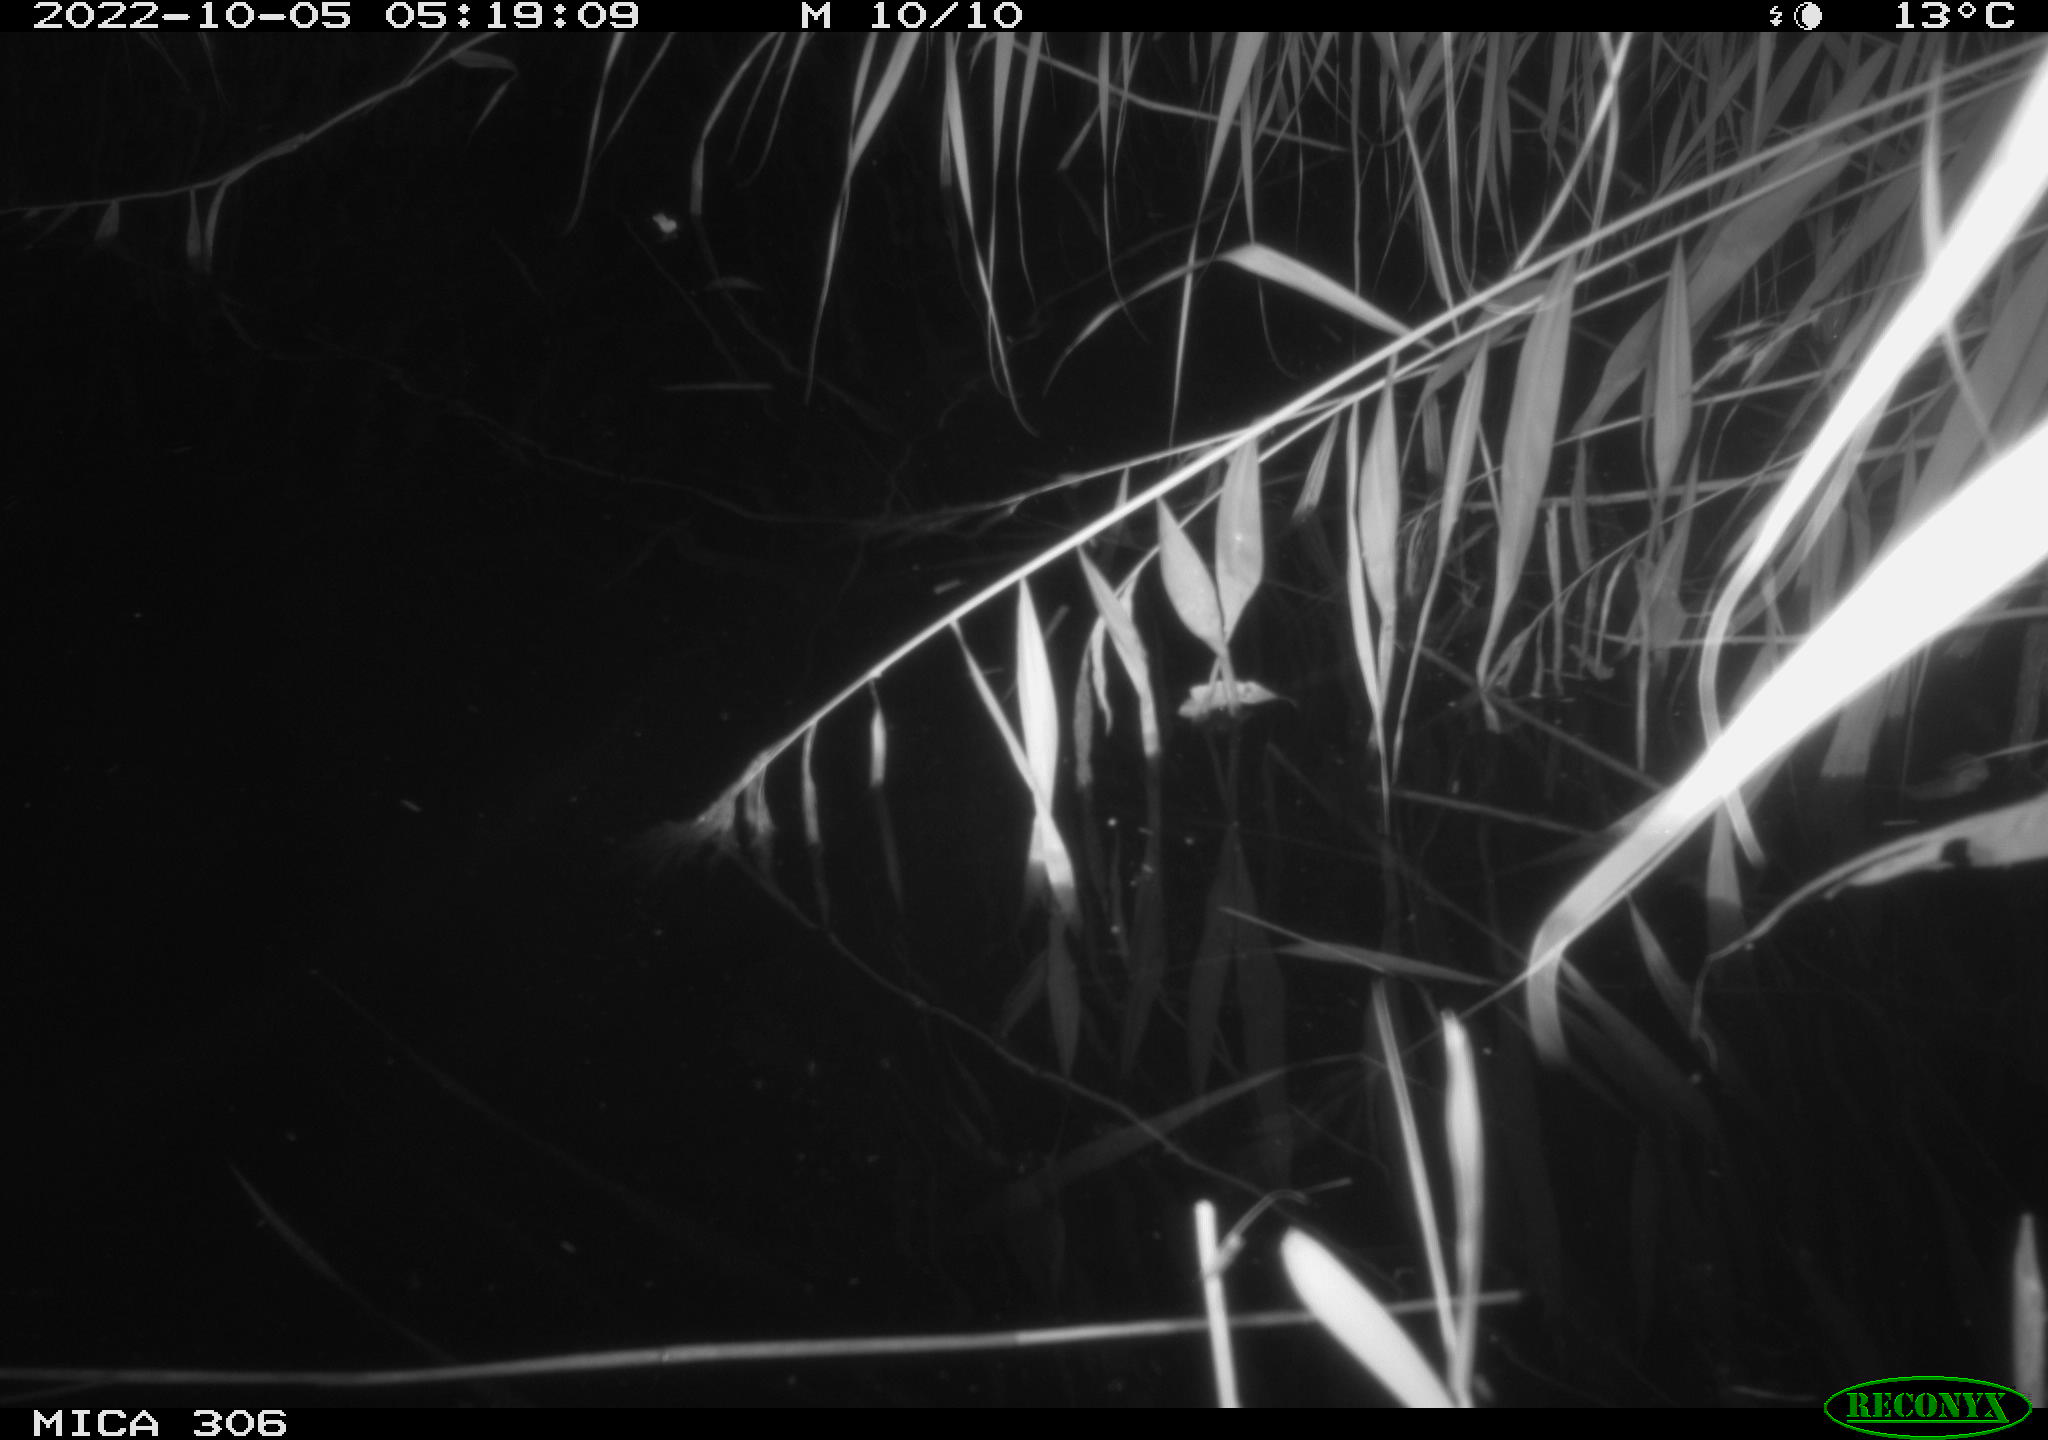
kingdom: Animalia
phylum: Chordata
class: Mammalia
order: Rodentia
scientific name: Rodentia
